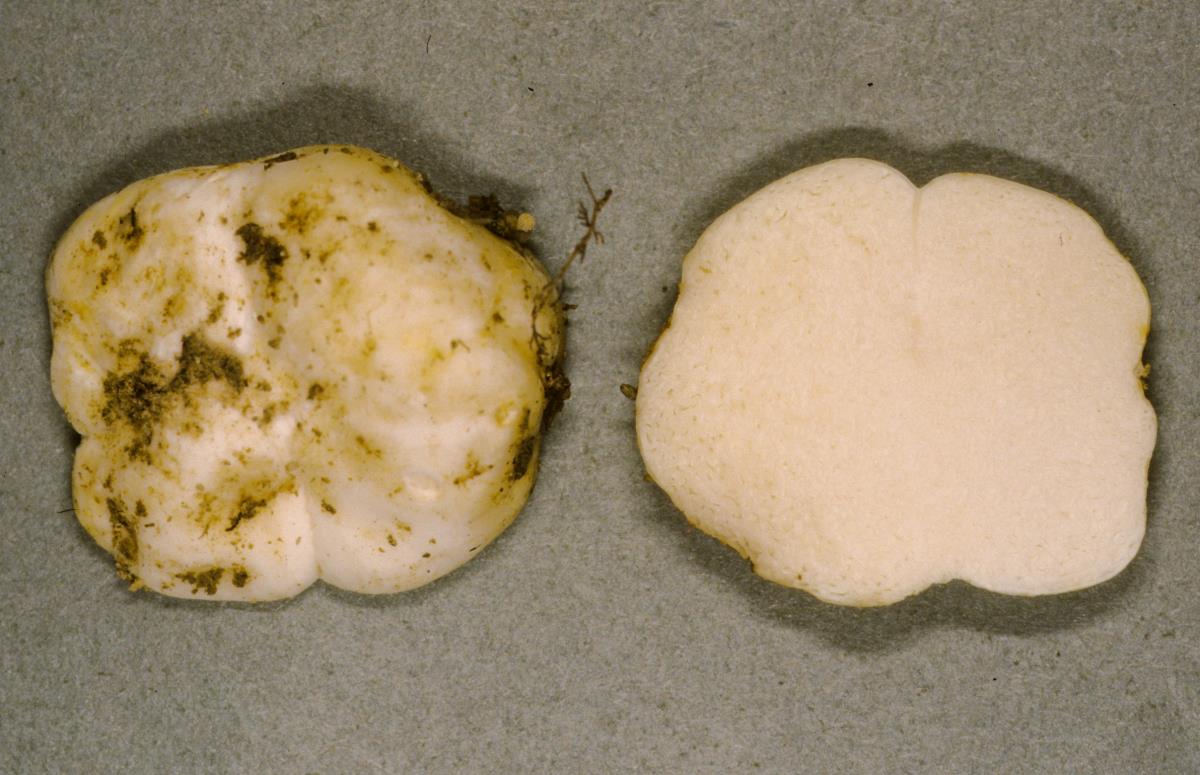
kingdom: Fungi
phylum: Basidiomycota
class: Agaricomycetes
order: Russulales
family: Russulaceae
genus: Russula
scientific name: Russula osphranticarpa
